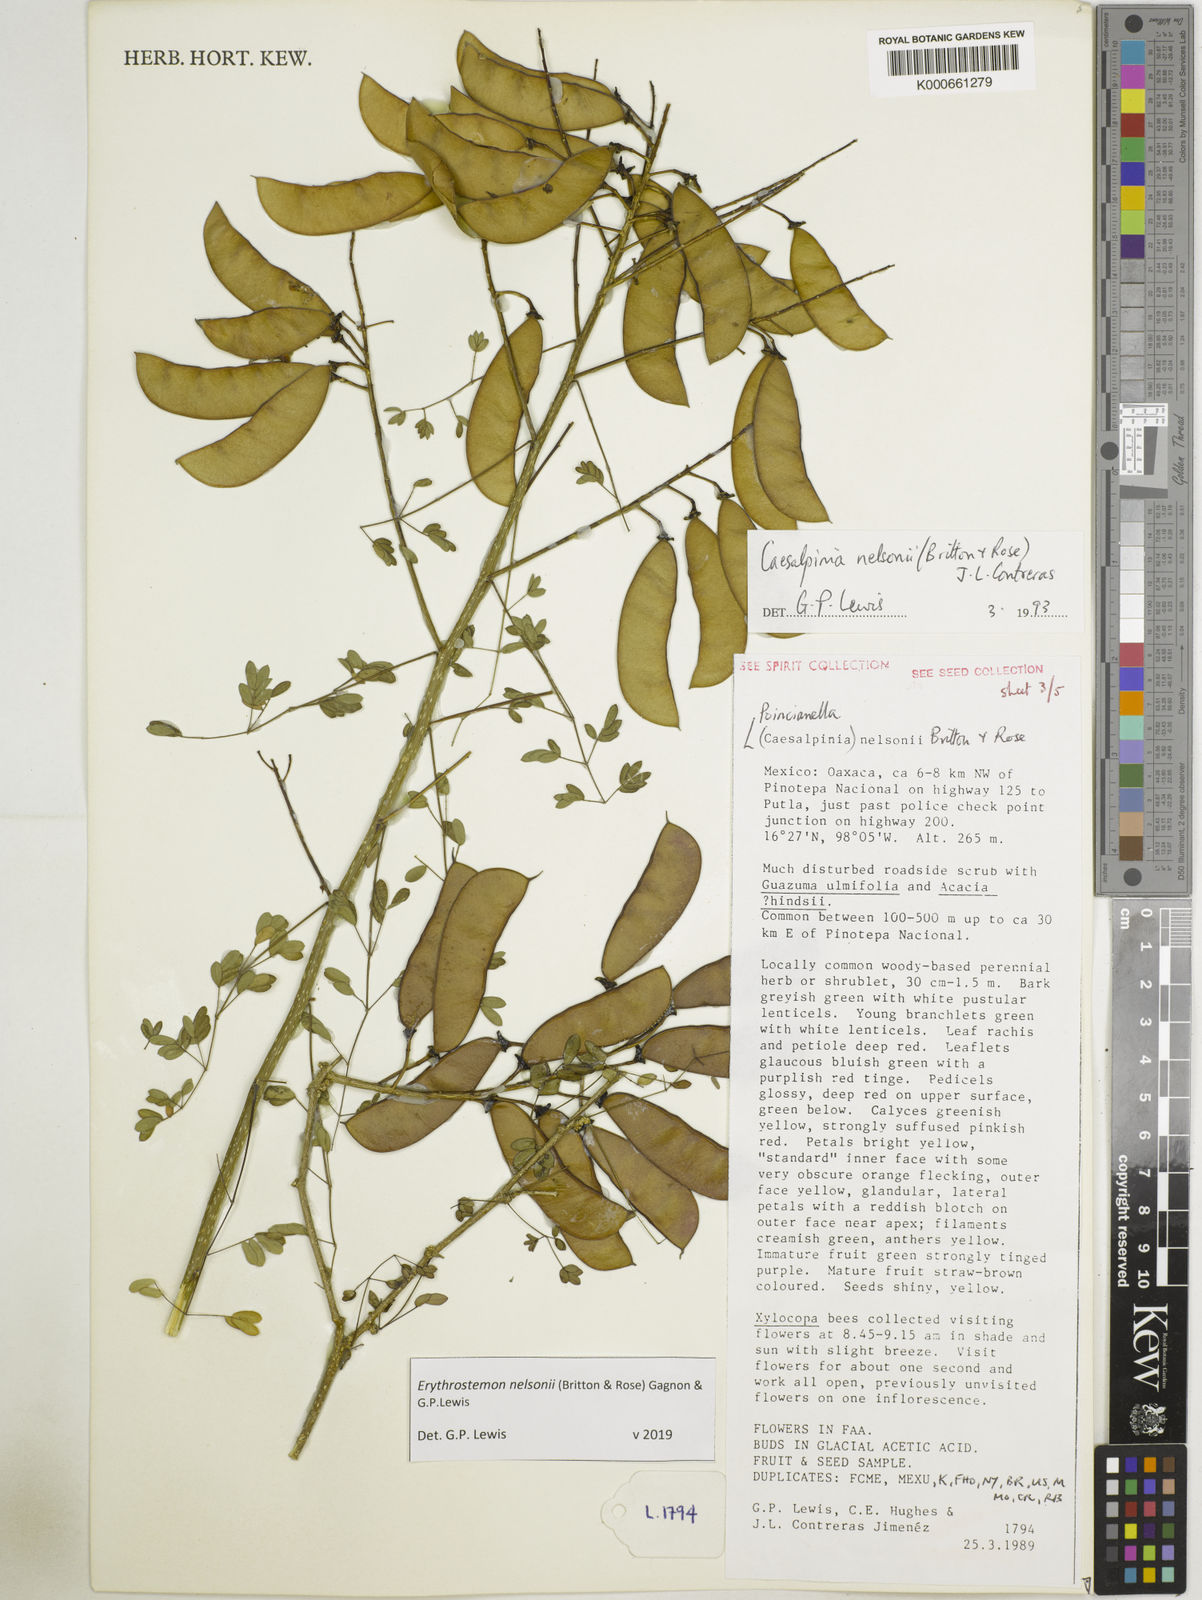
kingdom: Plantae
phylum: Tracheophyta
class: Magnoliopsida
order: Fabales
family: Fabaceae
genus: Erythrostemon
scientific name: Erythrostemon nelsonii
